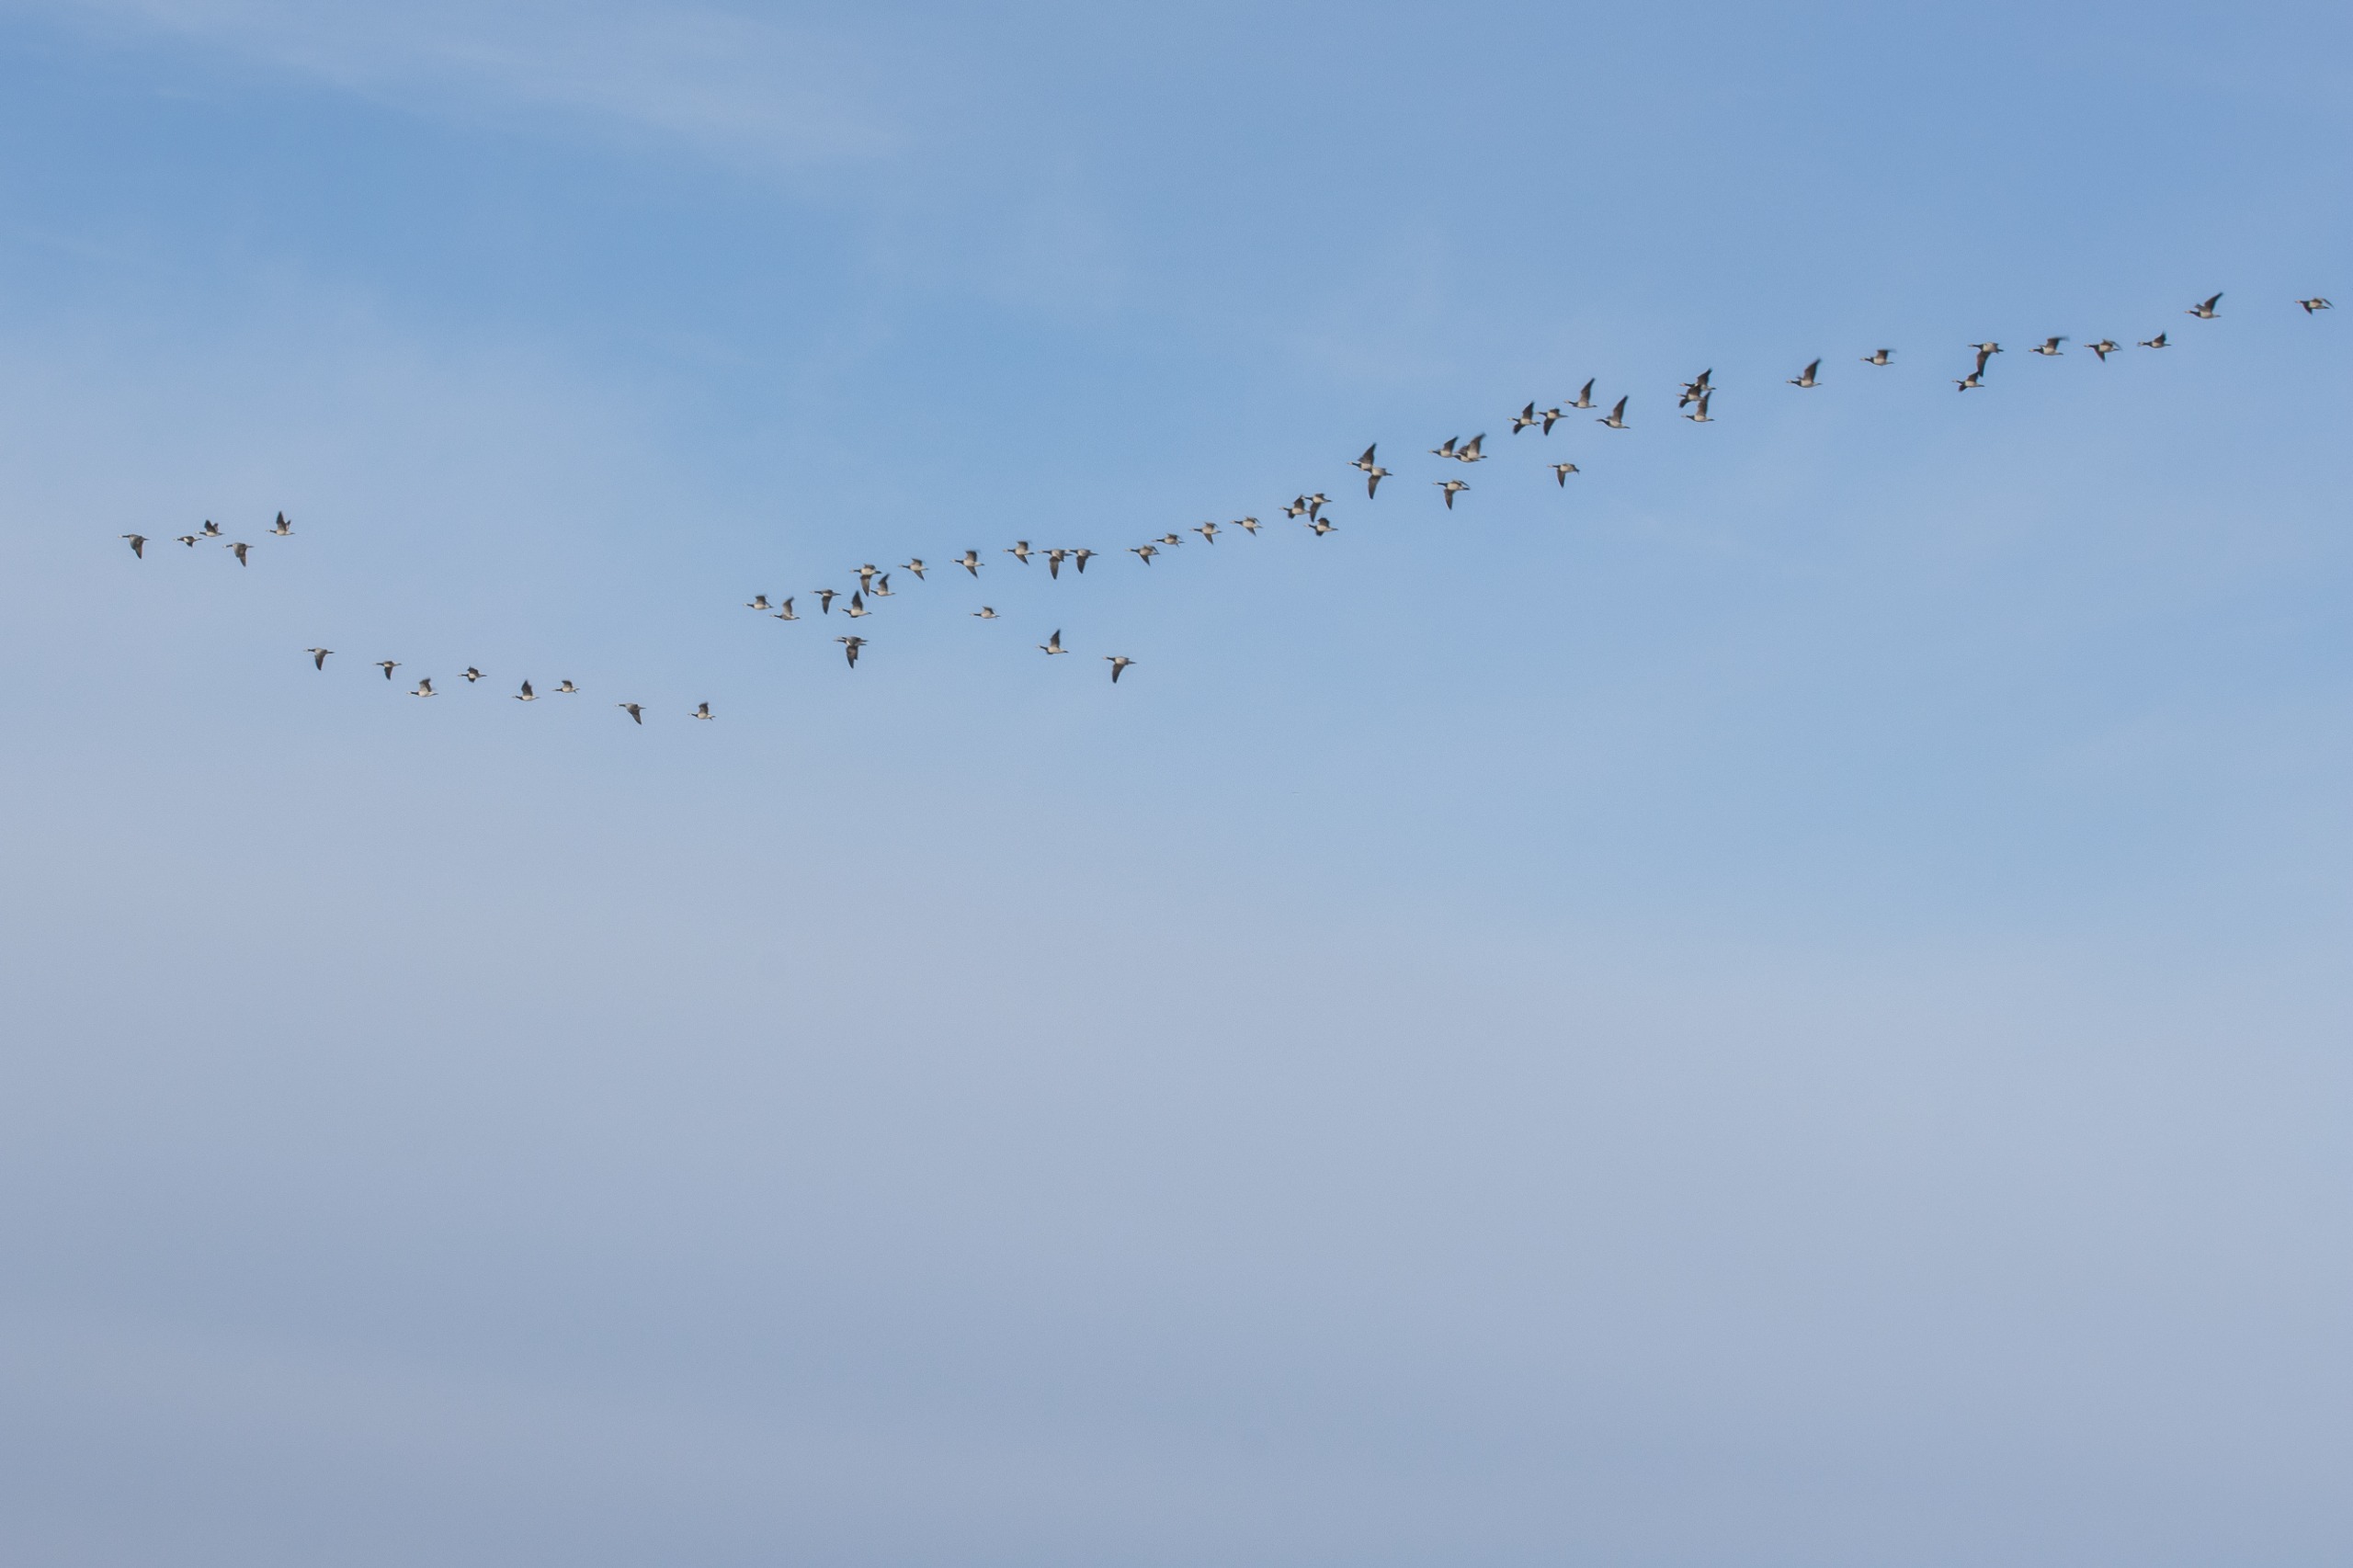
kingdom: Animalia
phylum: Chordata
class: Aves
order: Anseriformes
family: Anatidae
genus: Branta
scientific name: Branta leucopsis
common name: Bramgås
